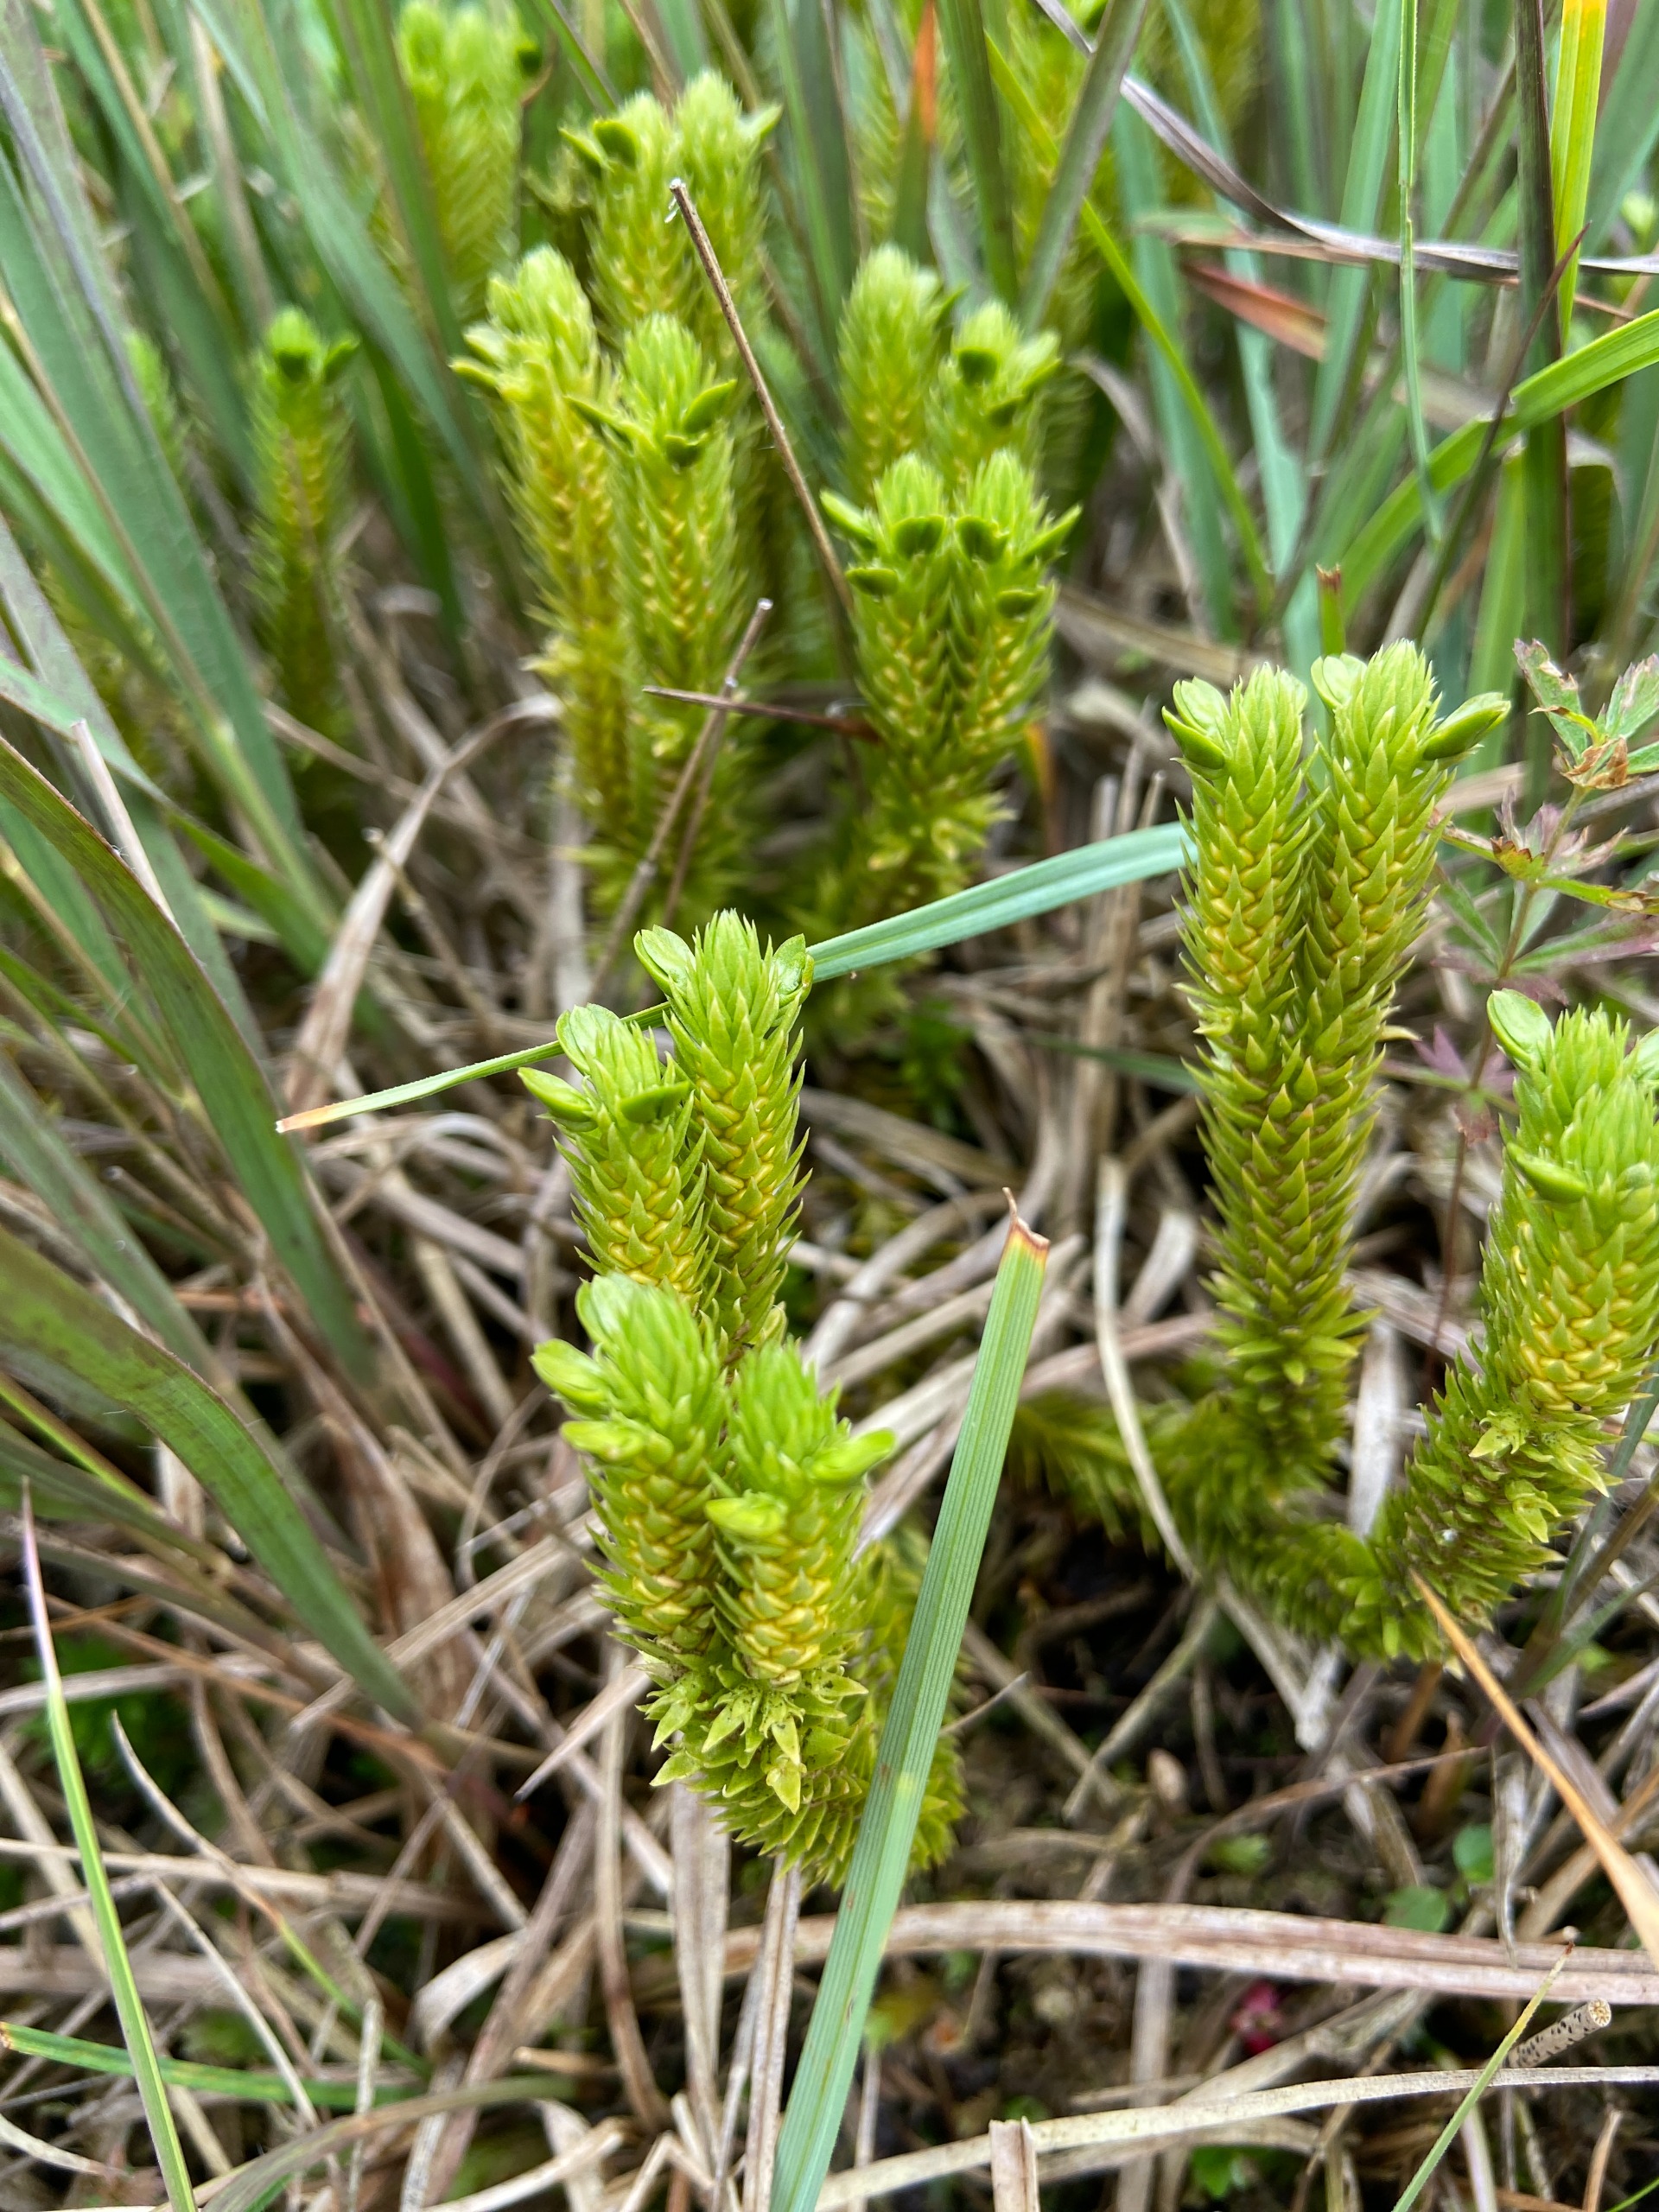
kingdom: Plantae
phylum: Tracheophyta
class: Lycopodiopsida
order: Lycopodiales
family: Lycopodiaceae
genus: Huperzia
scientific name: Huperzia selago
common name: Otteradet ulvefod
